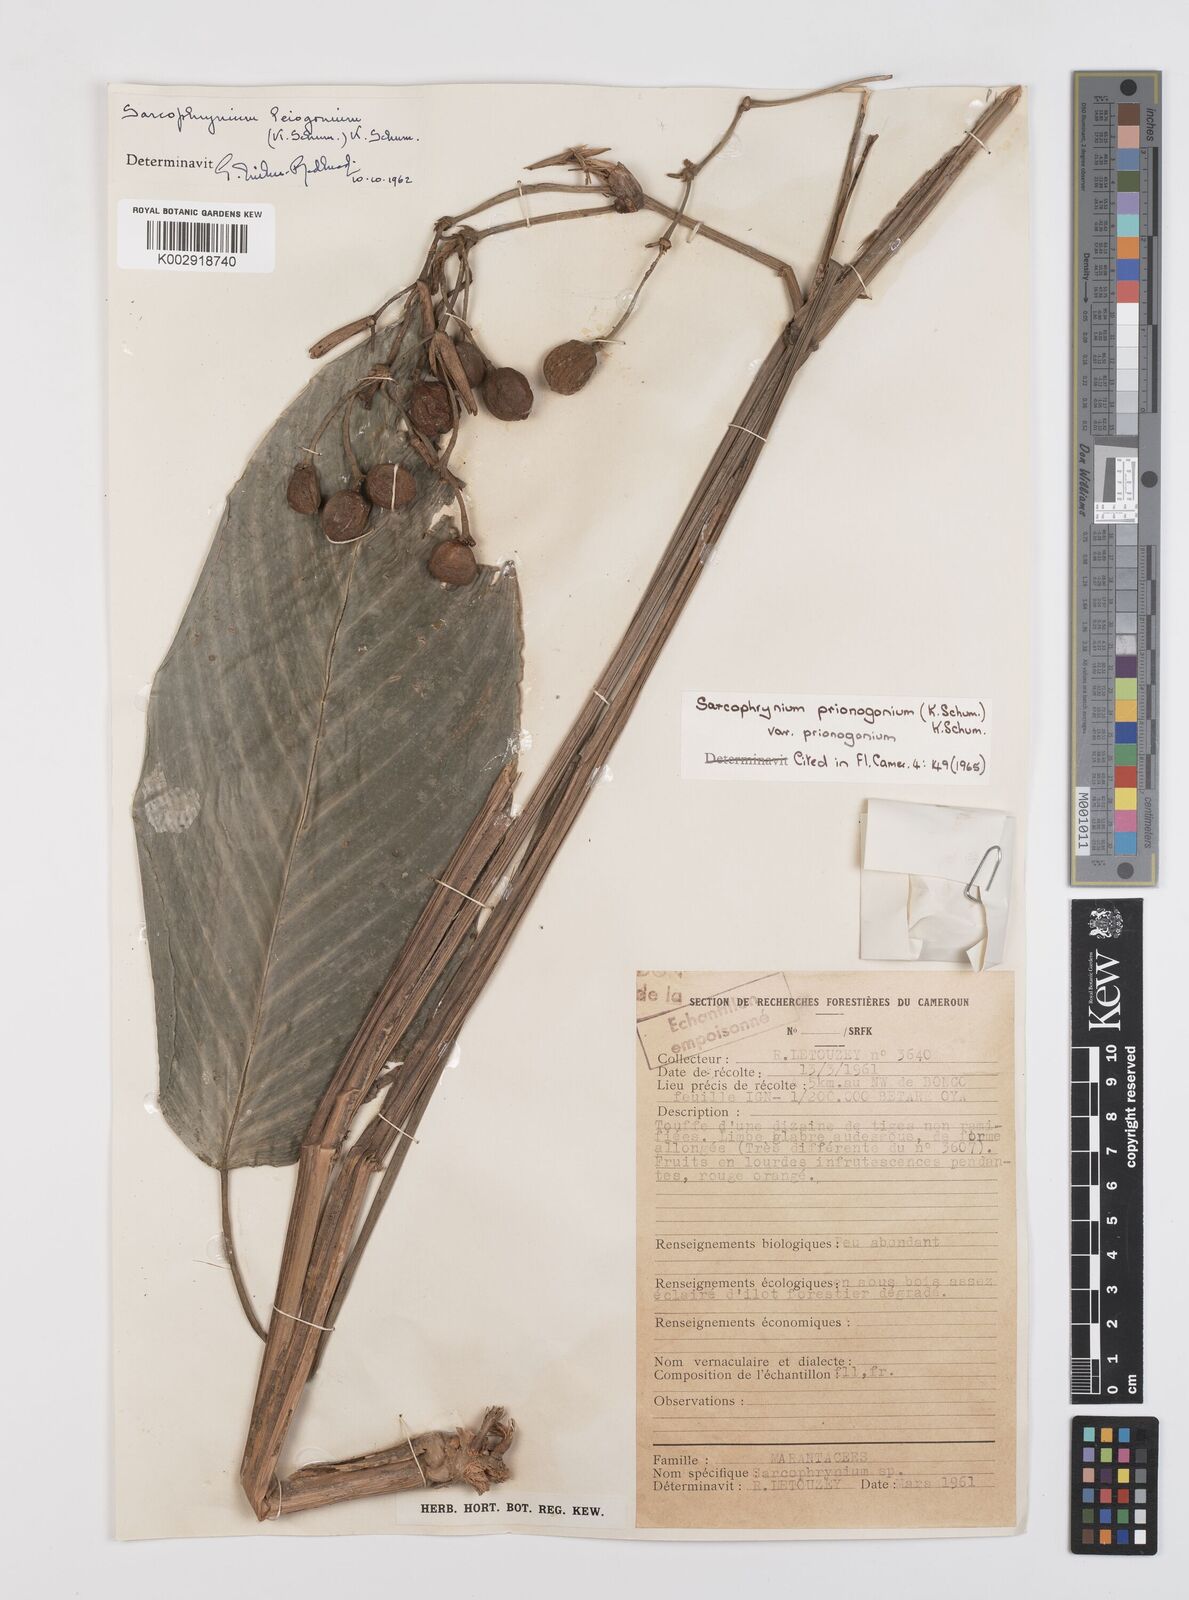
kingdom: Plantae
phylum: Tracheophyta
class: Liliopsida
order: Zingiberales
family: Marantaceae
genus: Sarcophrynium
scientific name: Sarcophrynium prionogonium
